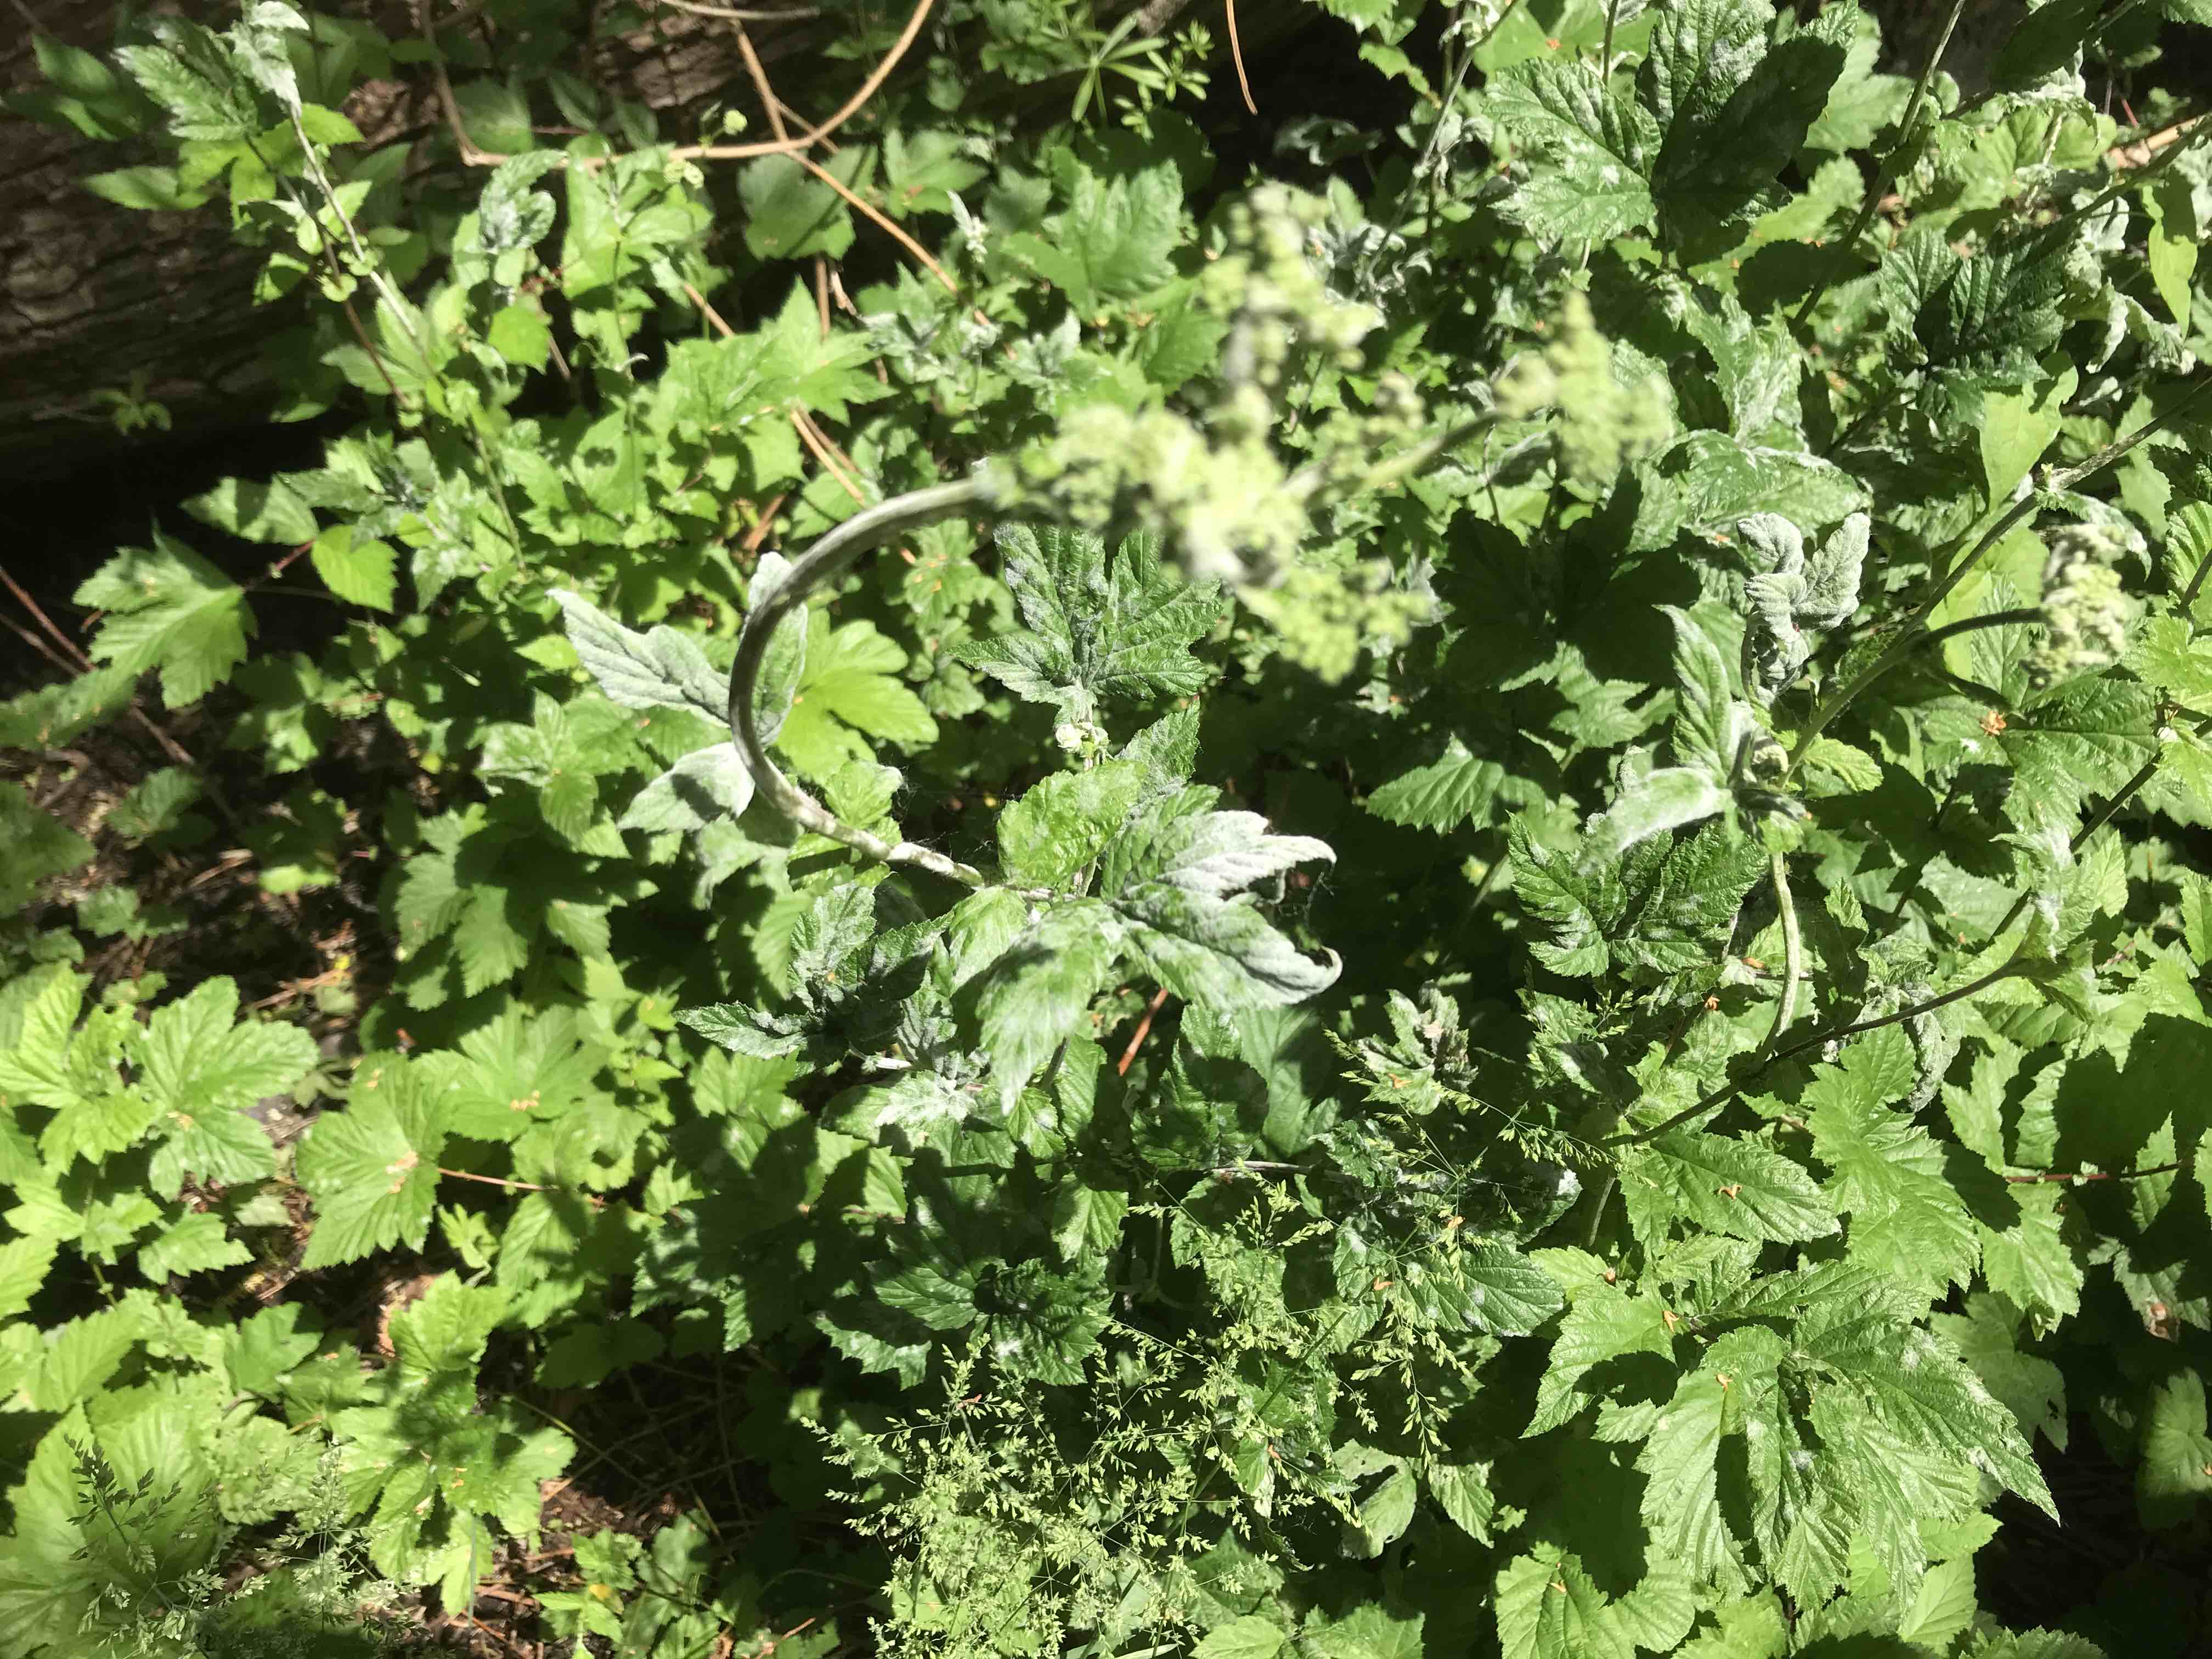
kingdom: Fungi
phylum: Ascomycota
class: Leotiomycetes
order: Helotiales
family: Erysiphaceae
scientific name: Erysiphaceae
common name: meldugfamilien
